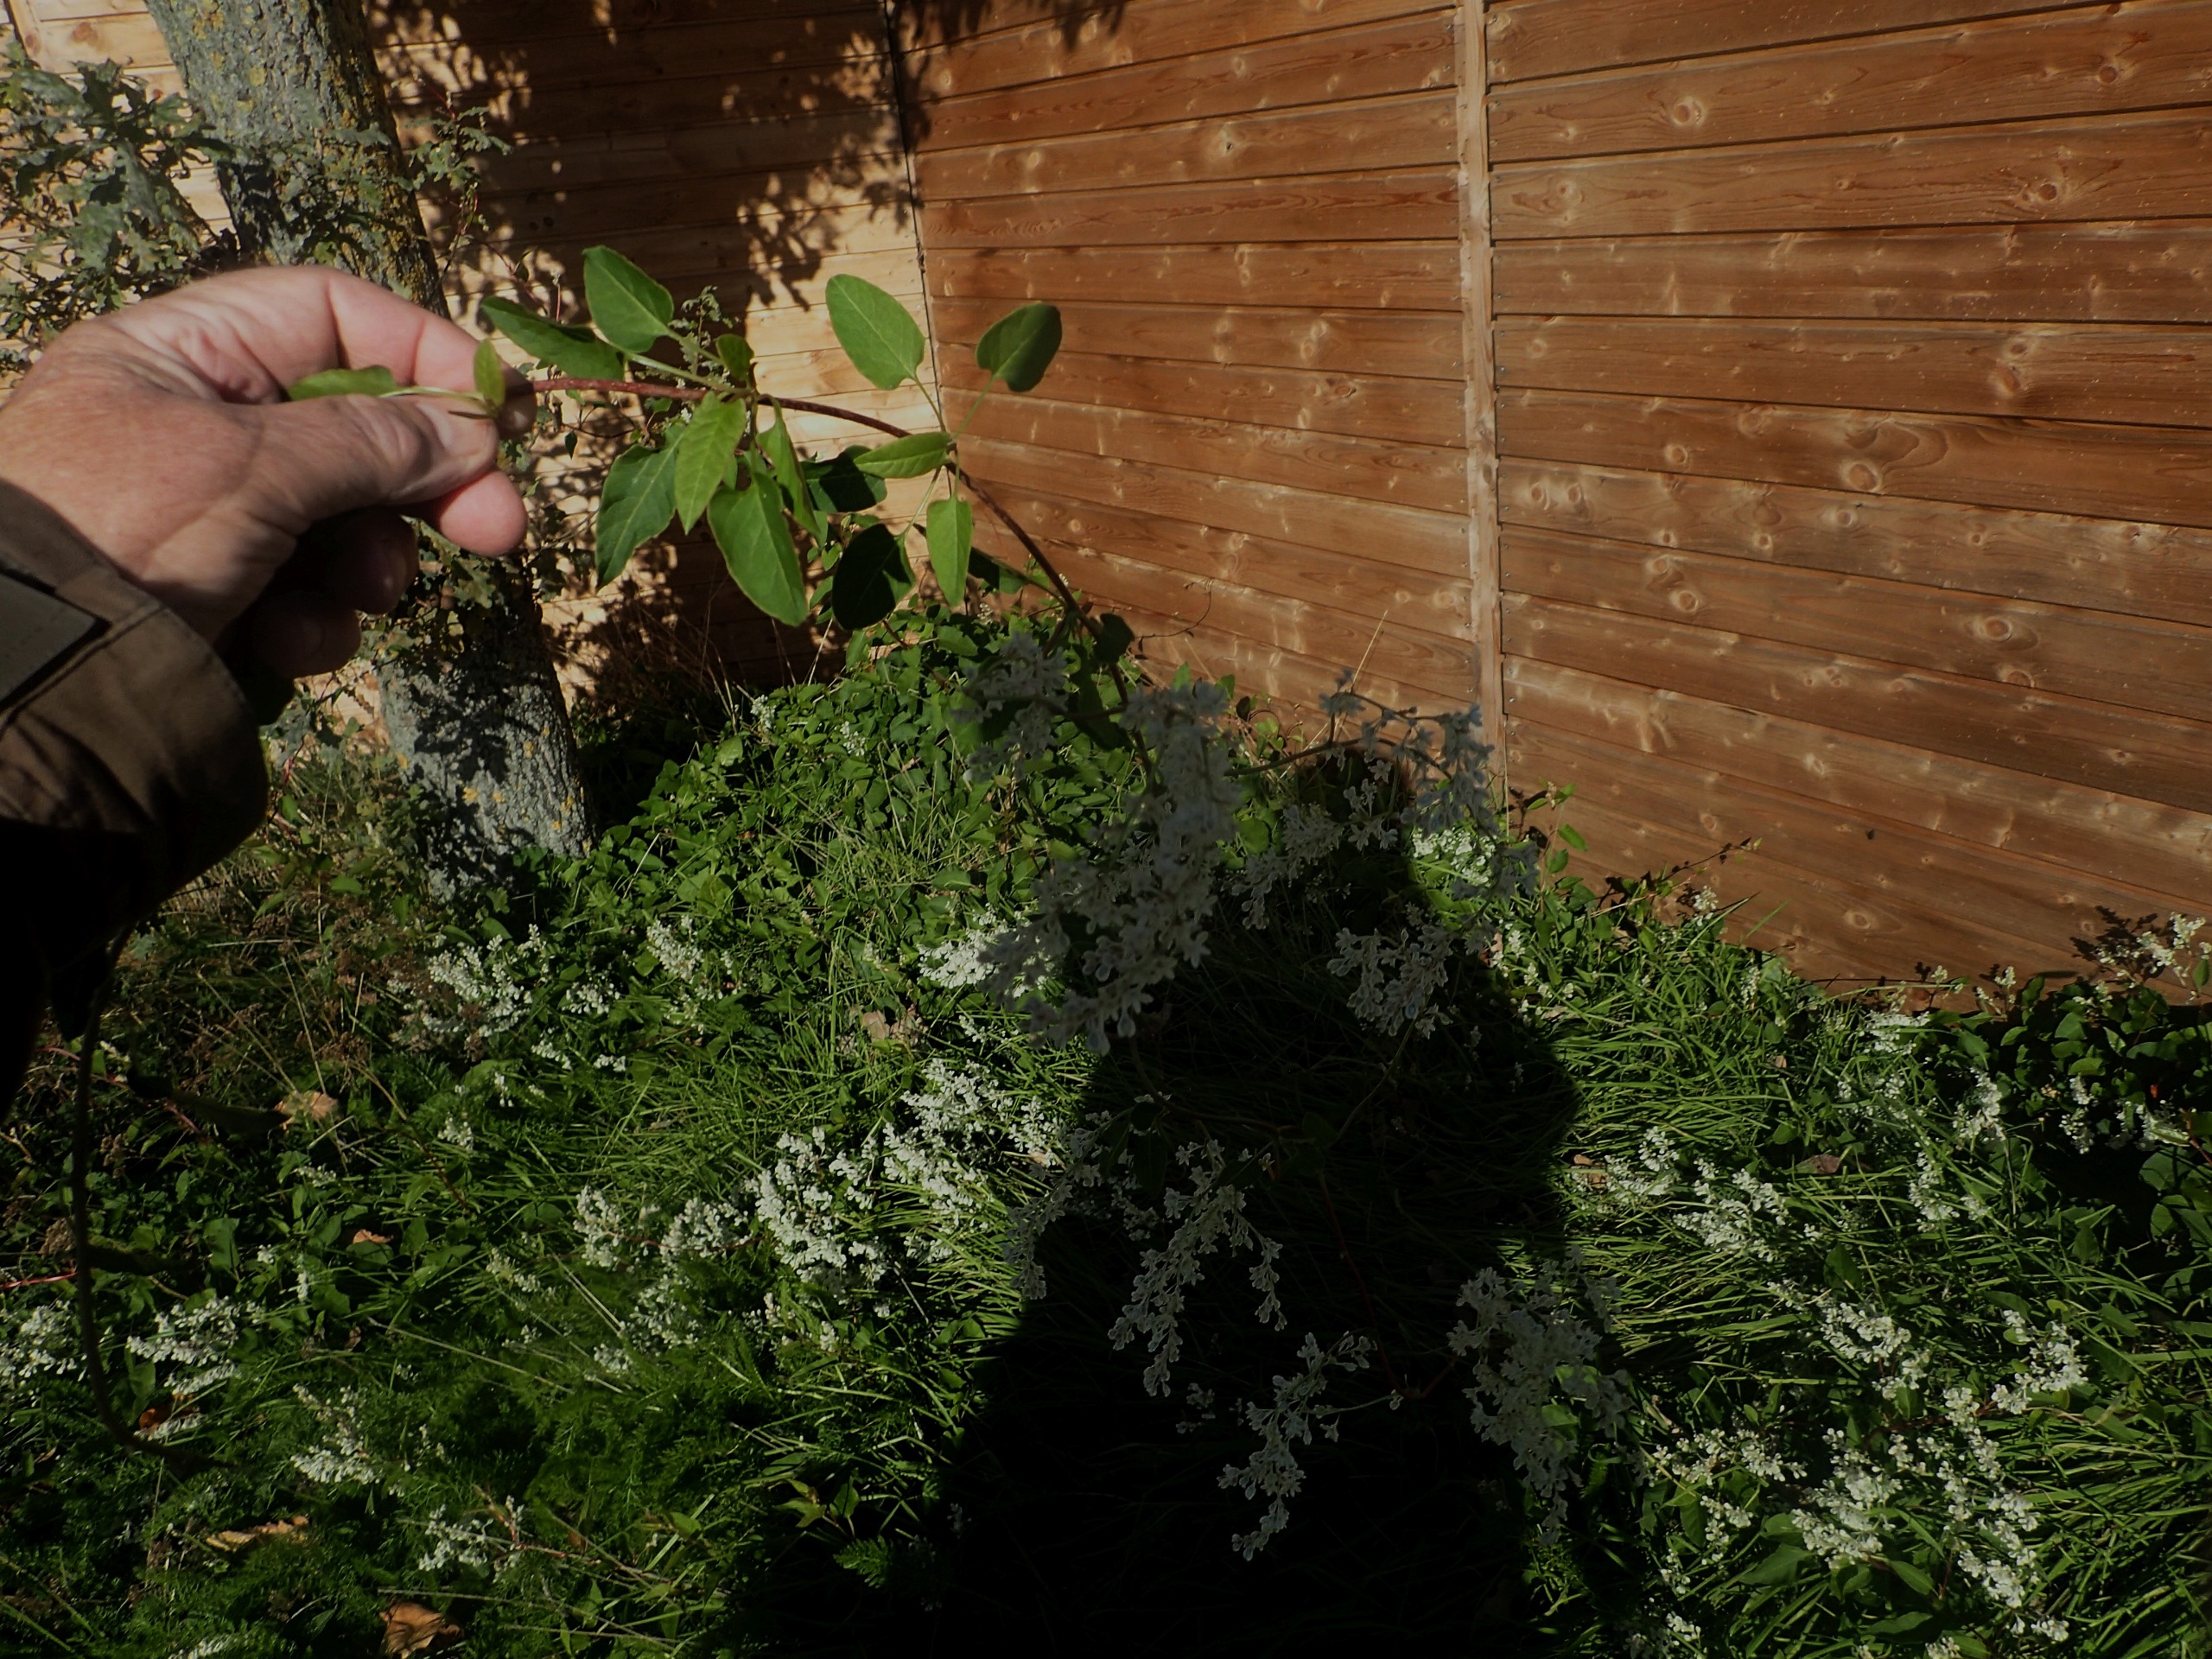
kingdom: Plantae
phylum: Tracheophyta
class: Magnoliopsida
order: Caryophyllales
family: Polygonaceae
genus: Fallopia
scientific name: Fallopia baldschuanica
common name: Sølvregn
